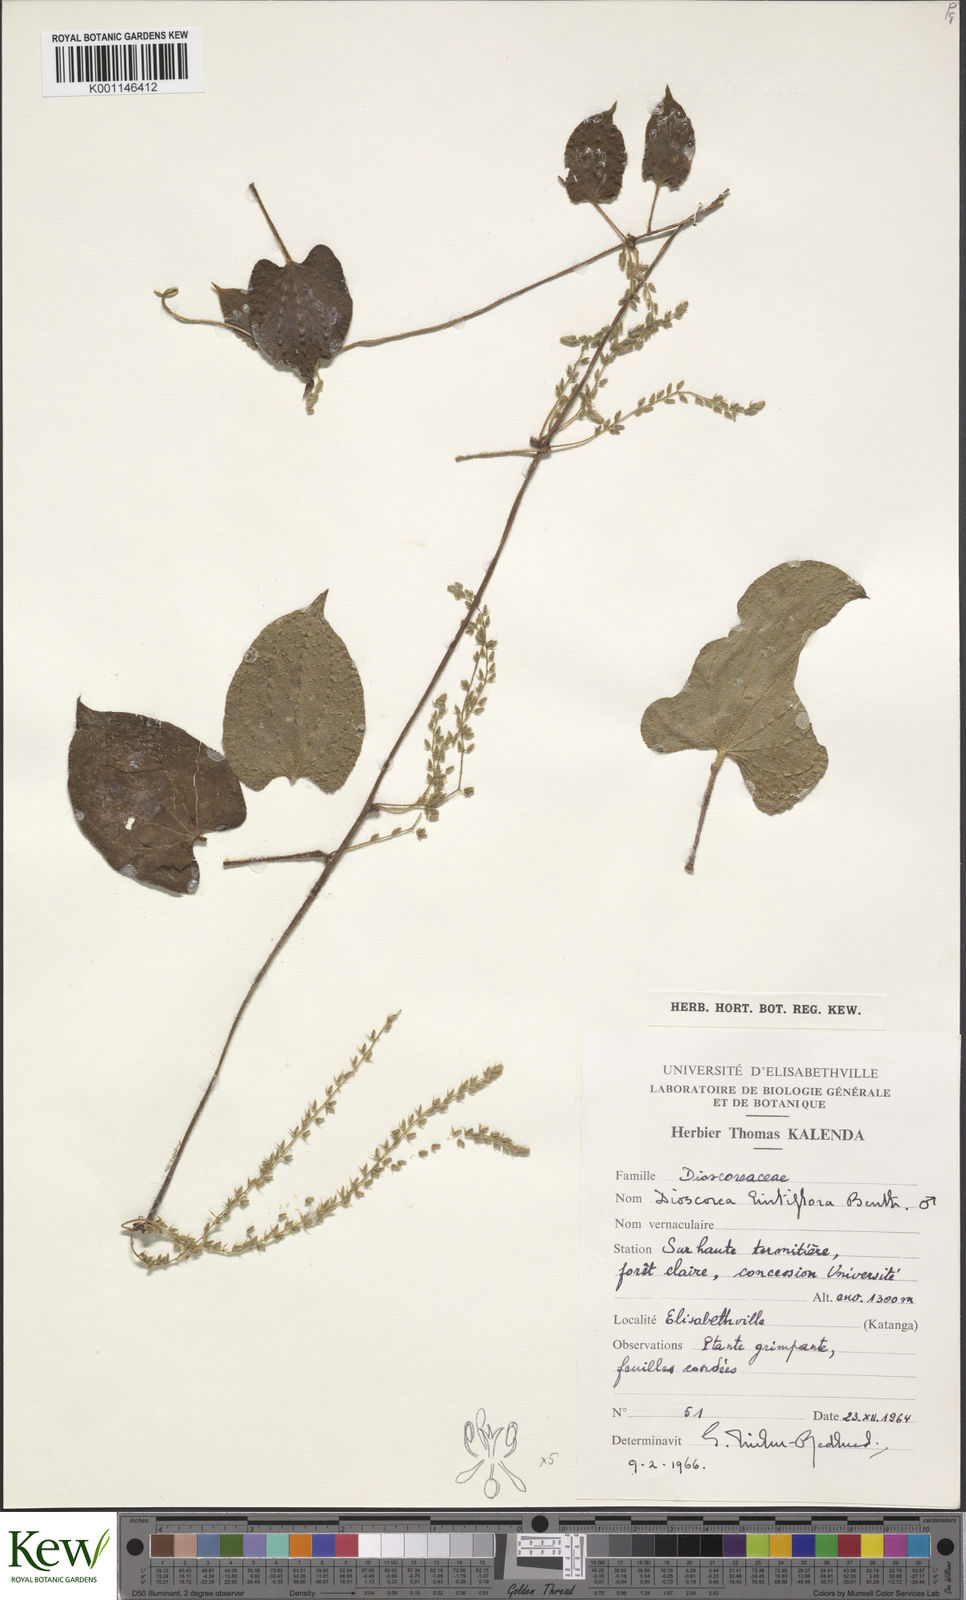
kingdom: Plantae
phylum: Tracheophyta
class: Liliopsida
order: Dioscoreales
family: Dioscoreaceae
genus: Dioscorea
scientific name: Dioscorea hirtiflora
